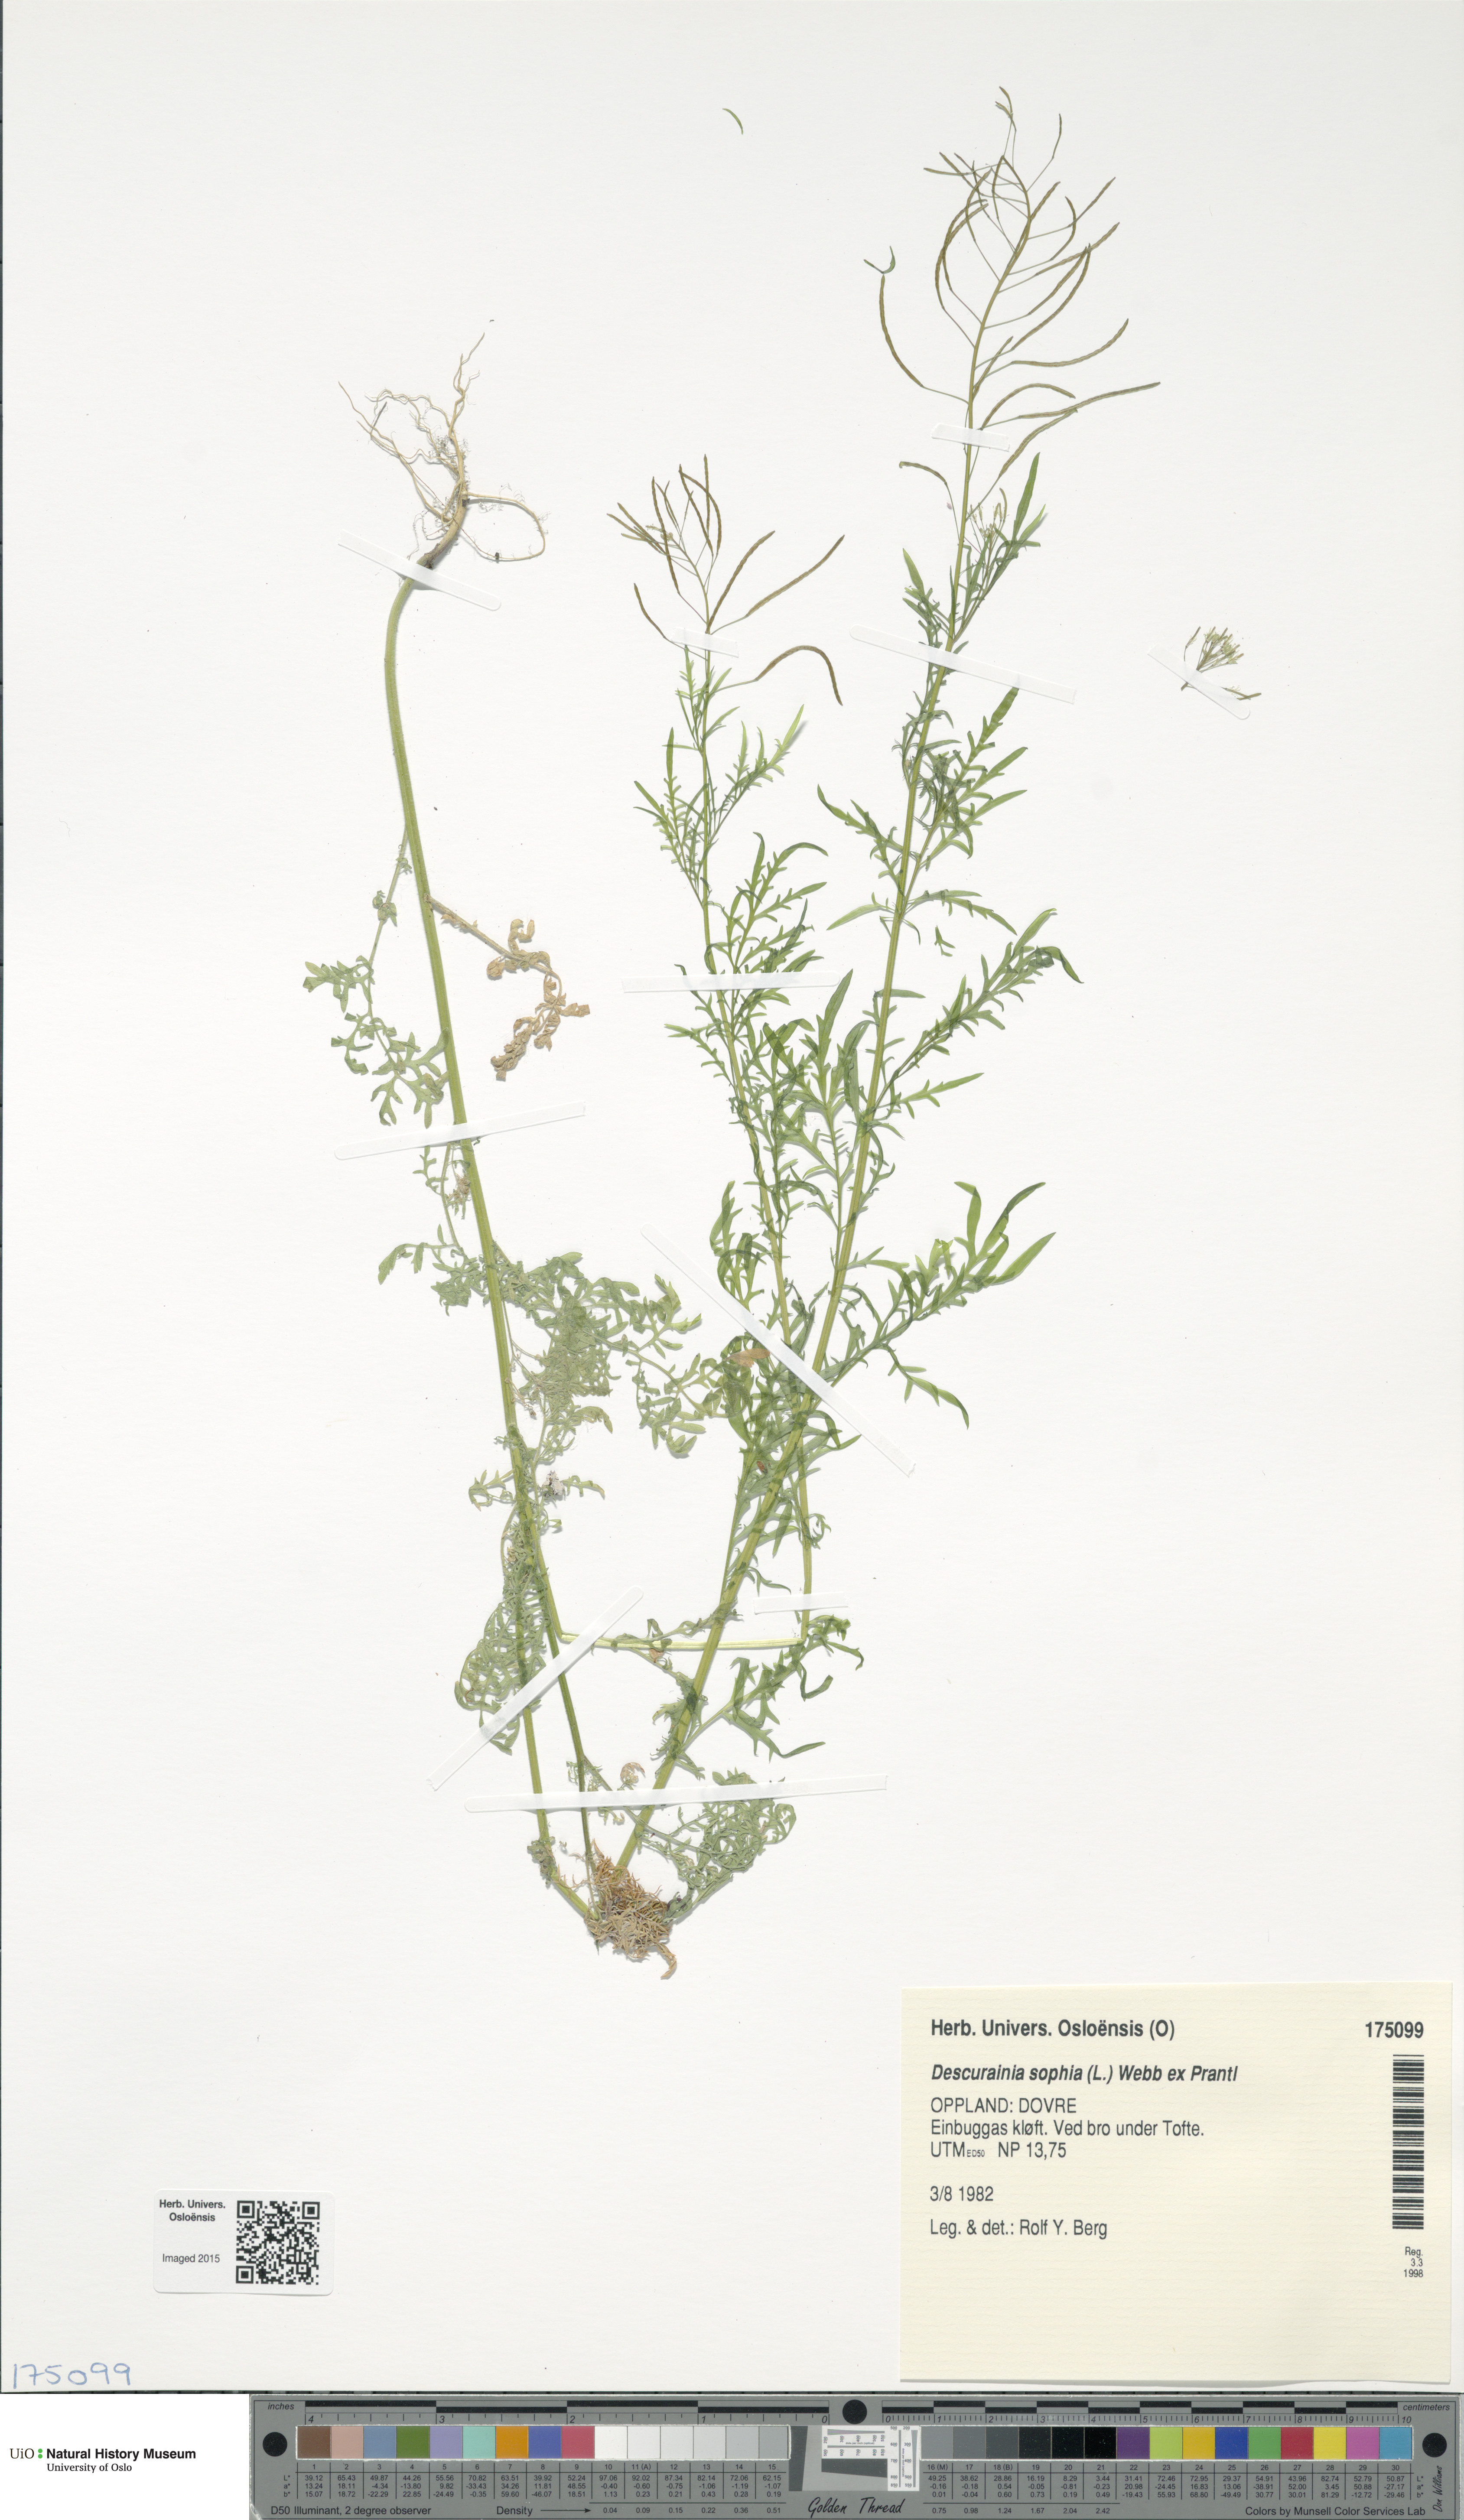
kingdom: Plantae
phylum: Tracheophyta
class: Magnoliopsida
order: Brassicales
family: Brassicaceae
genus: Descurainia
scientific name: Descurainia sophia
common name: Flixweed
